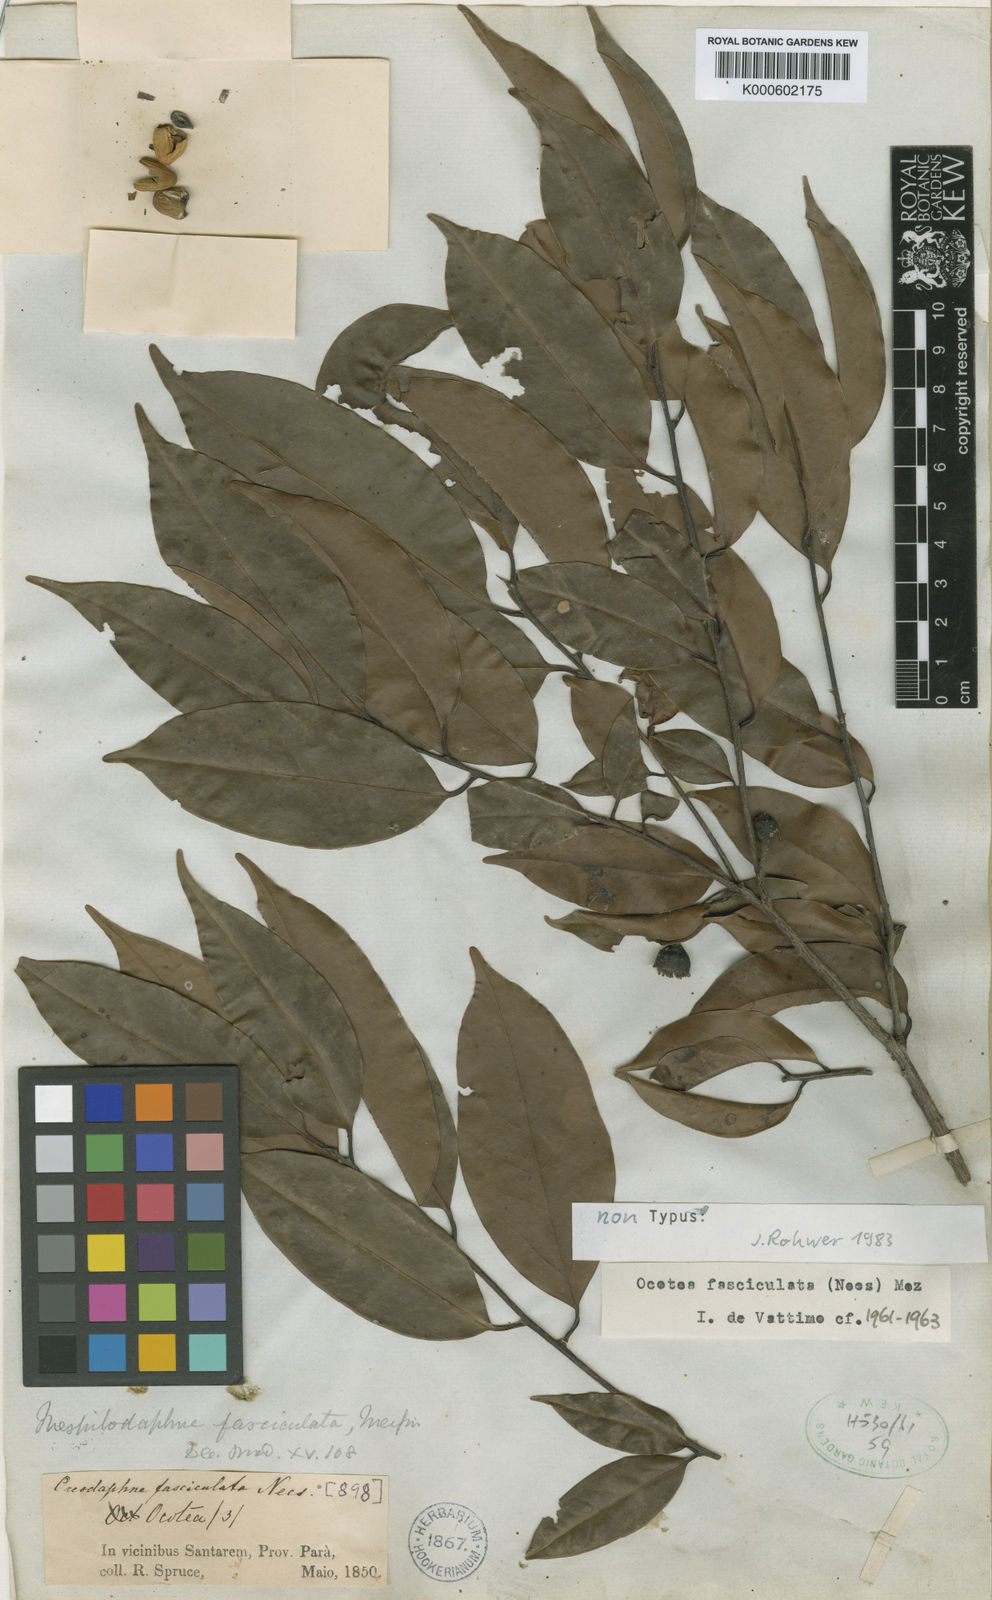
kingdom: Plantae
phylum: Tracheophyta
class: Magnoliopsida
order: Laurales
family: Lauraceae
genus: Mespilodaphne
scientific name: Mespilodaphne fasciculata
